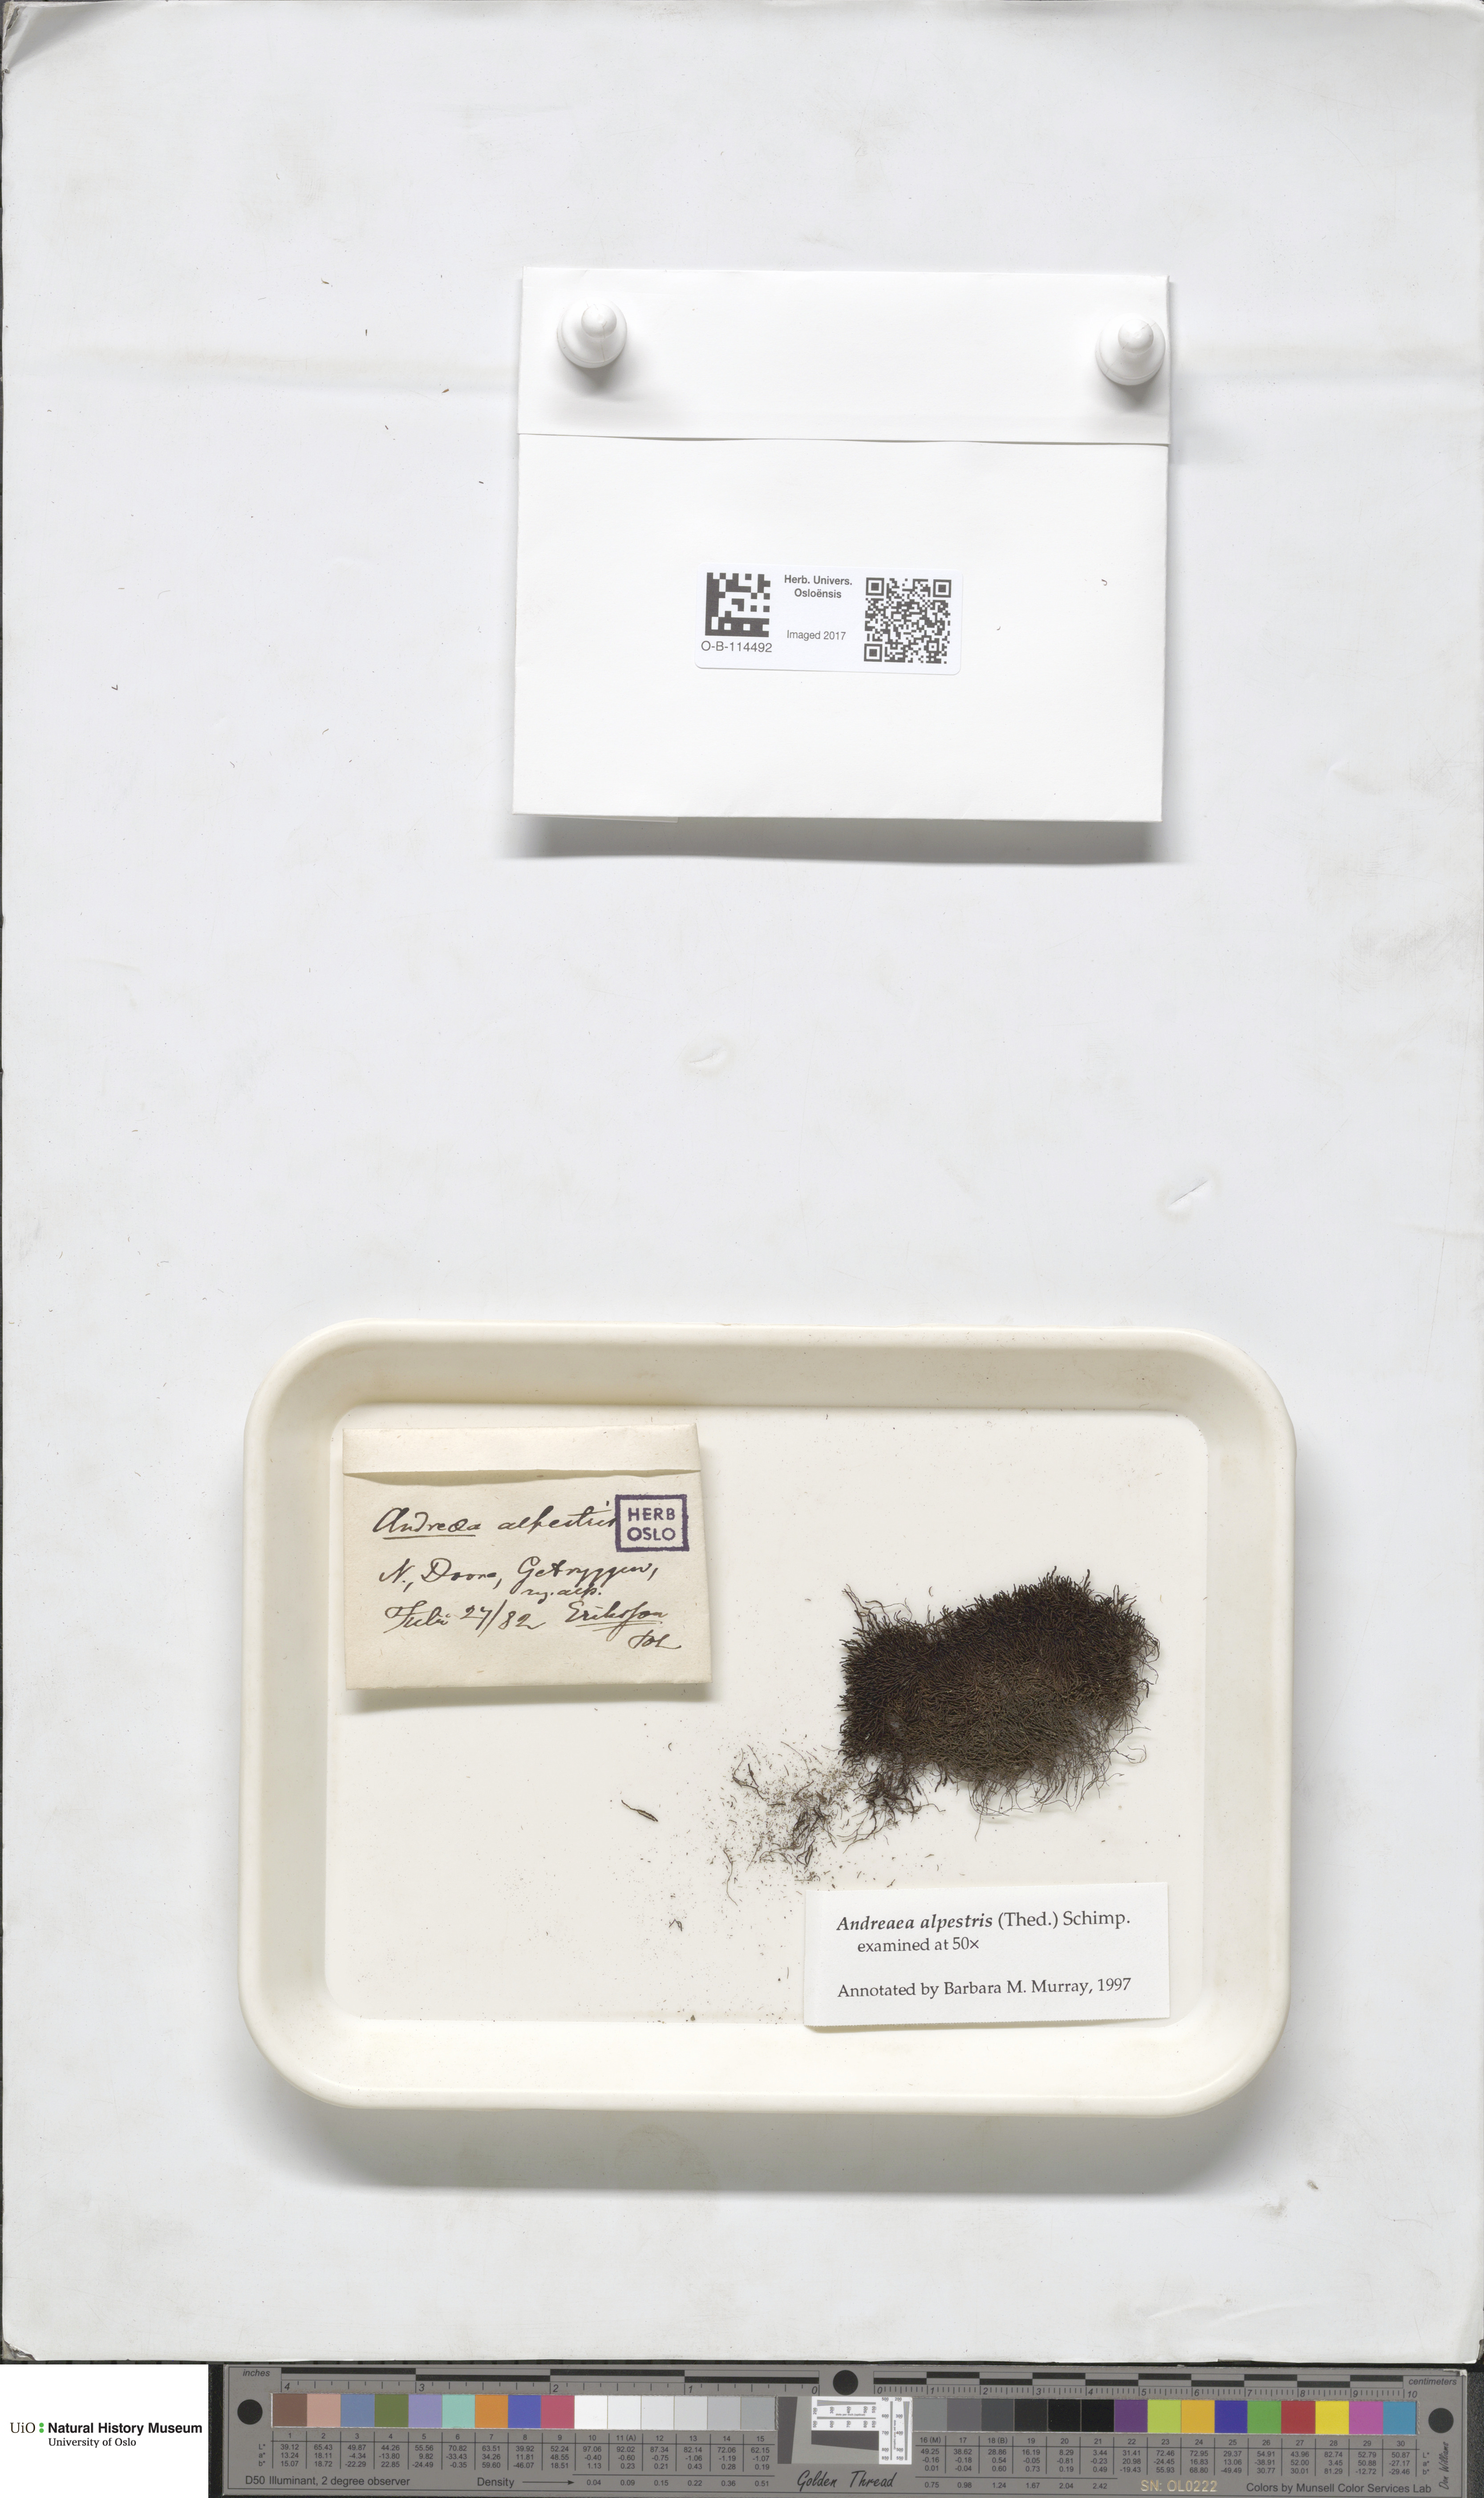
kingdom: Plantae
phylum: Bryophyta
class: Andreaeopsida
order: Andreaeales
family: Andreaeaceae
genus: Andreaea
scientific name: Andreaea alpestris
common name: Slender rock-moss
